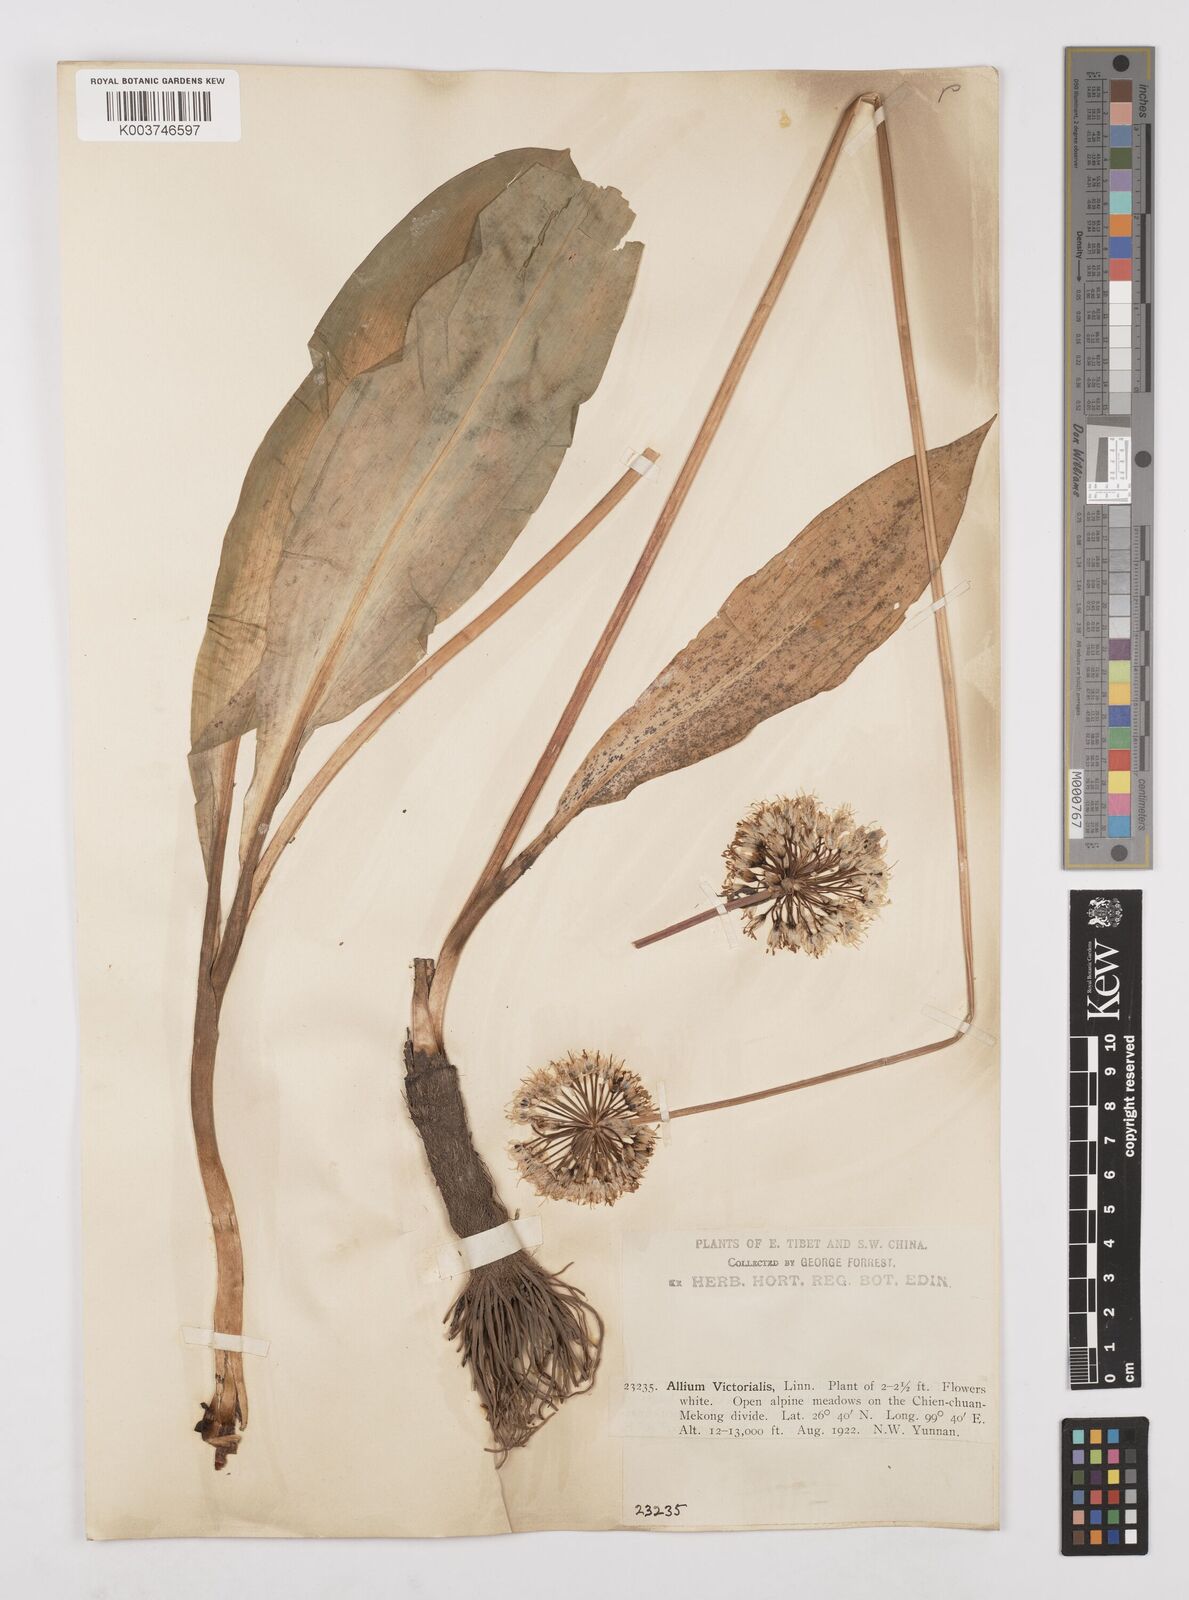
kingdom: Plantae
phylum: Tracheophyta
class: Liliopsida
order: Asparagales
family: Amaryllidaceae
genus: Allium
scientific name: Allium victorialis
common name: Alpine leek
